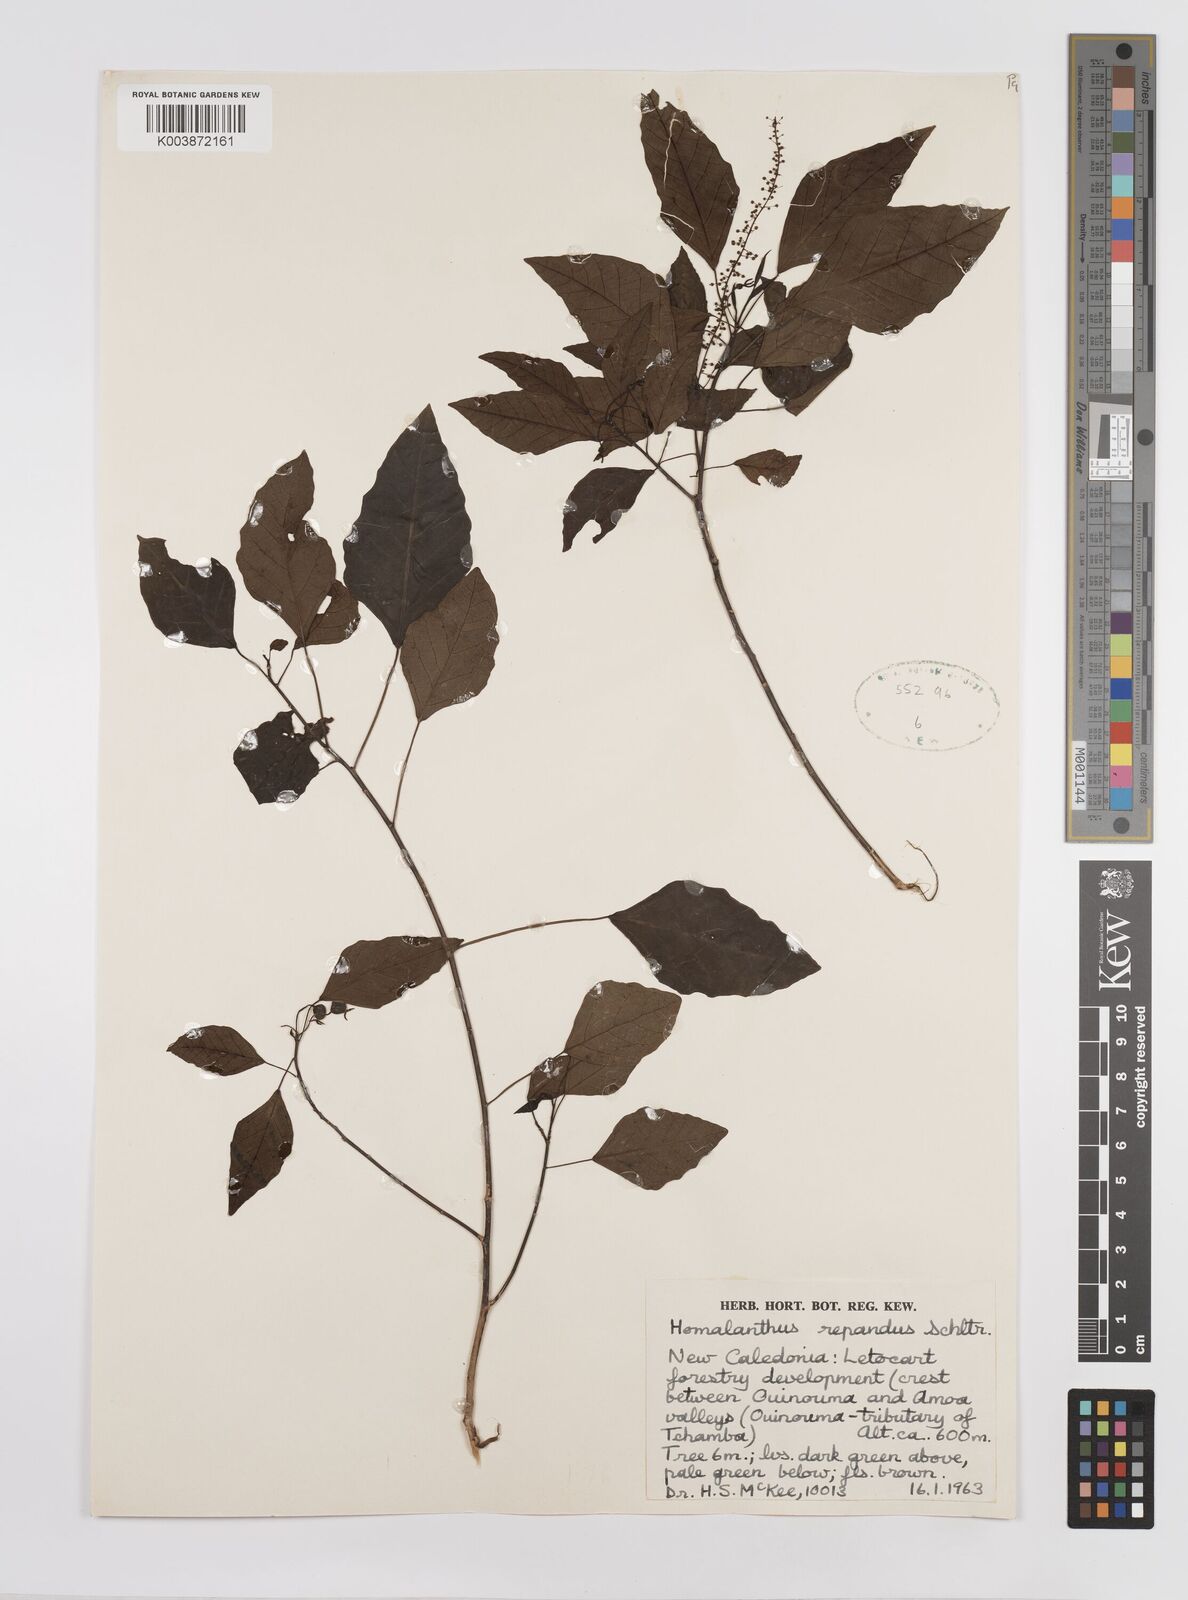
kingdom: Plantae
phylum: Tracheophyta
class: Magnoliopsida
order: Malpighiales
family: Euphorbiaceae
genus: Homalanthus
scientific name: Homalanthus repandus
